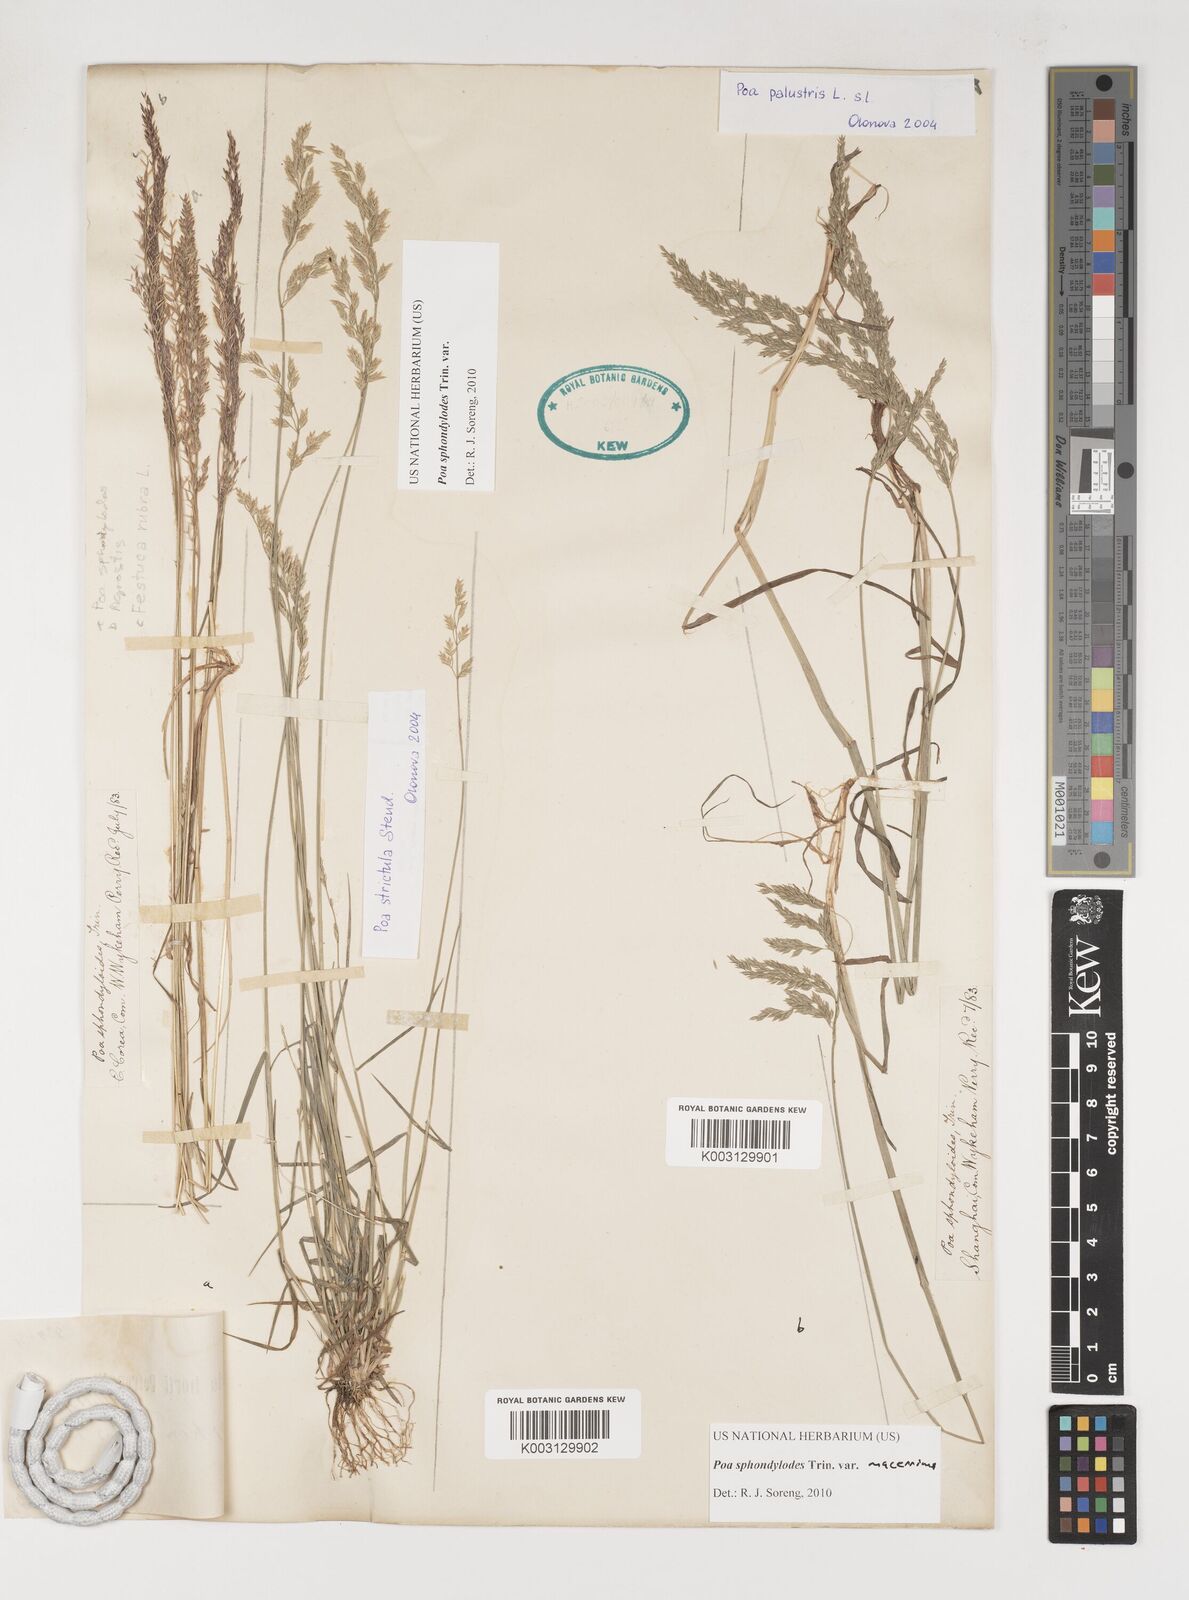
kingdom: Plantae
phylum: Tracheophyta
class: Liliopsida
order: Poales
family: Poaceae
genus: Poa
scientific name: Poa sphondylodes
